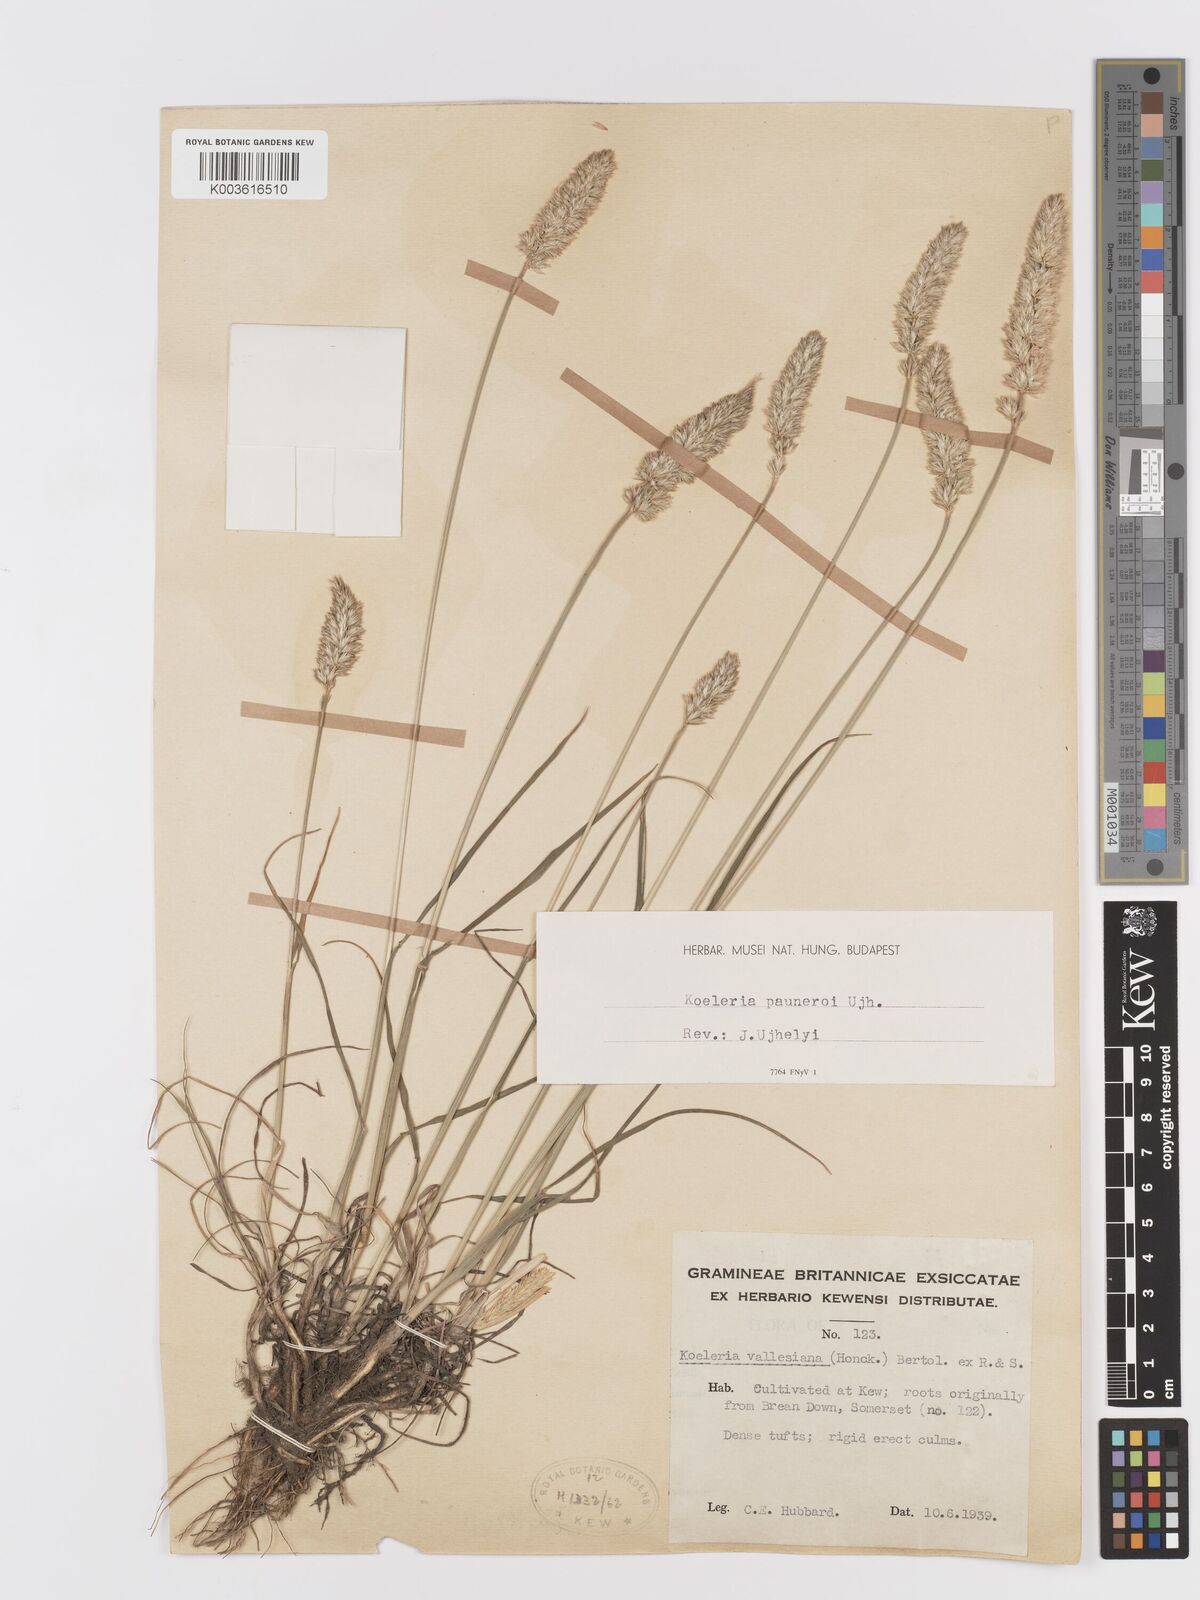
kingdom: Plantae
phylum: Tracheophyta
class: Liliopsida
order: Poales
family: Poaceae
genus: Koeleria
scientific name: Koeleria vallesiana
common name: Somerset hair-grass
